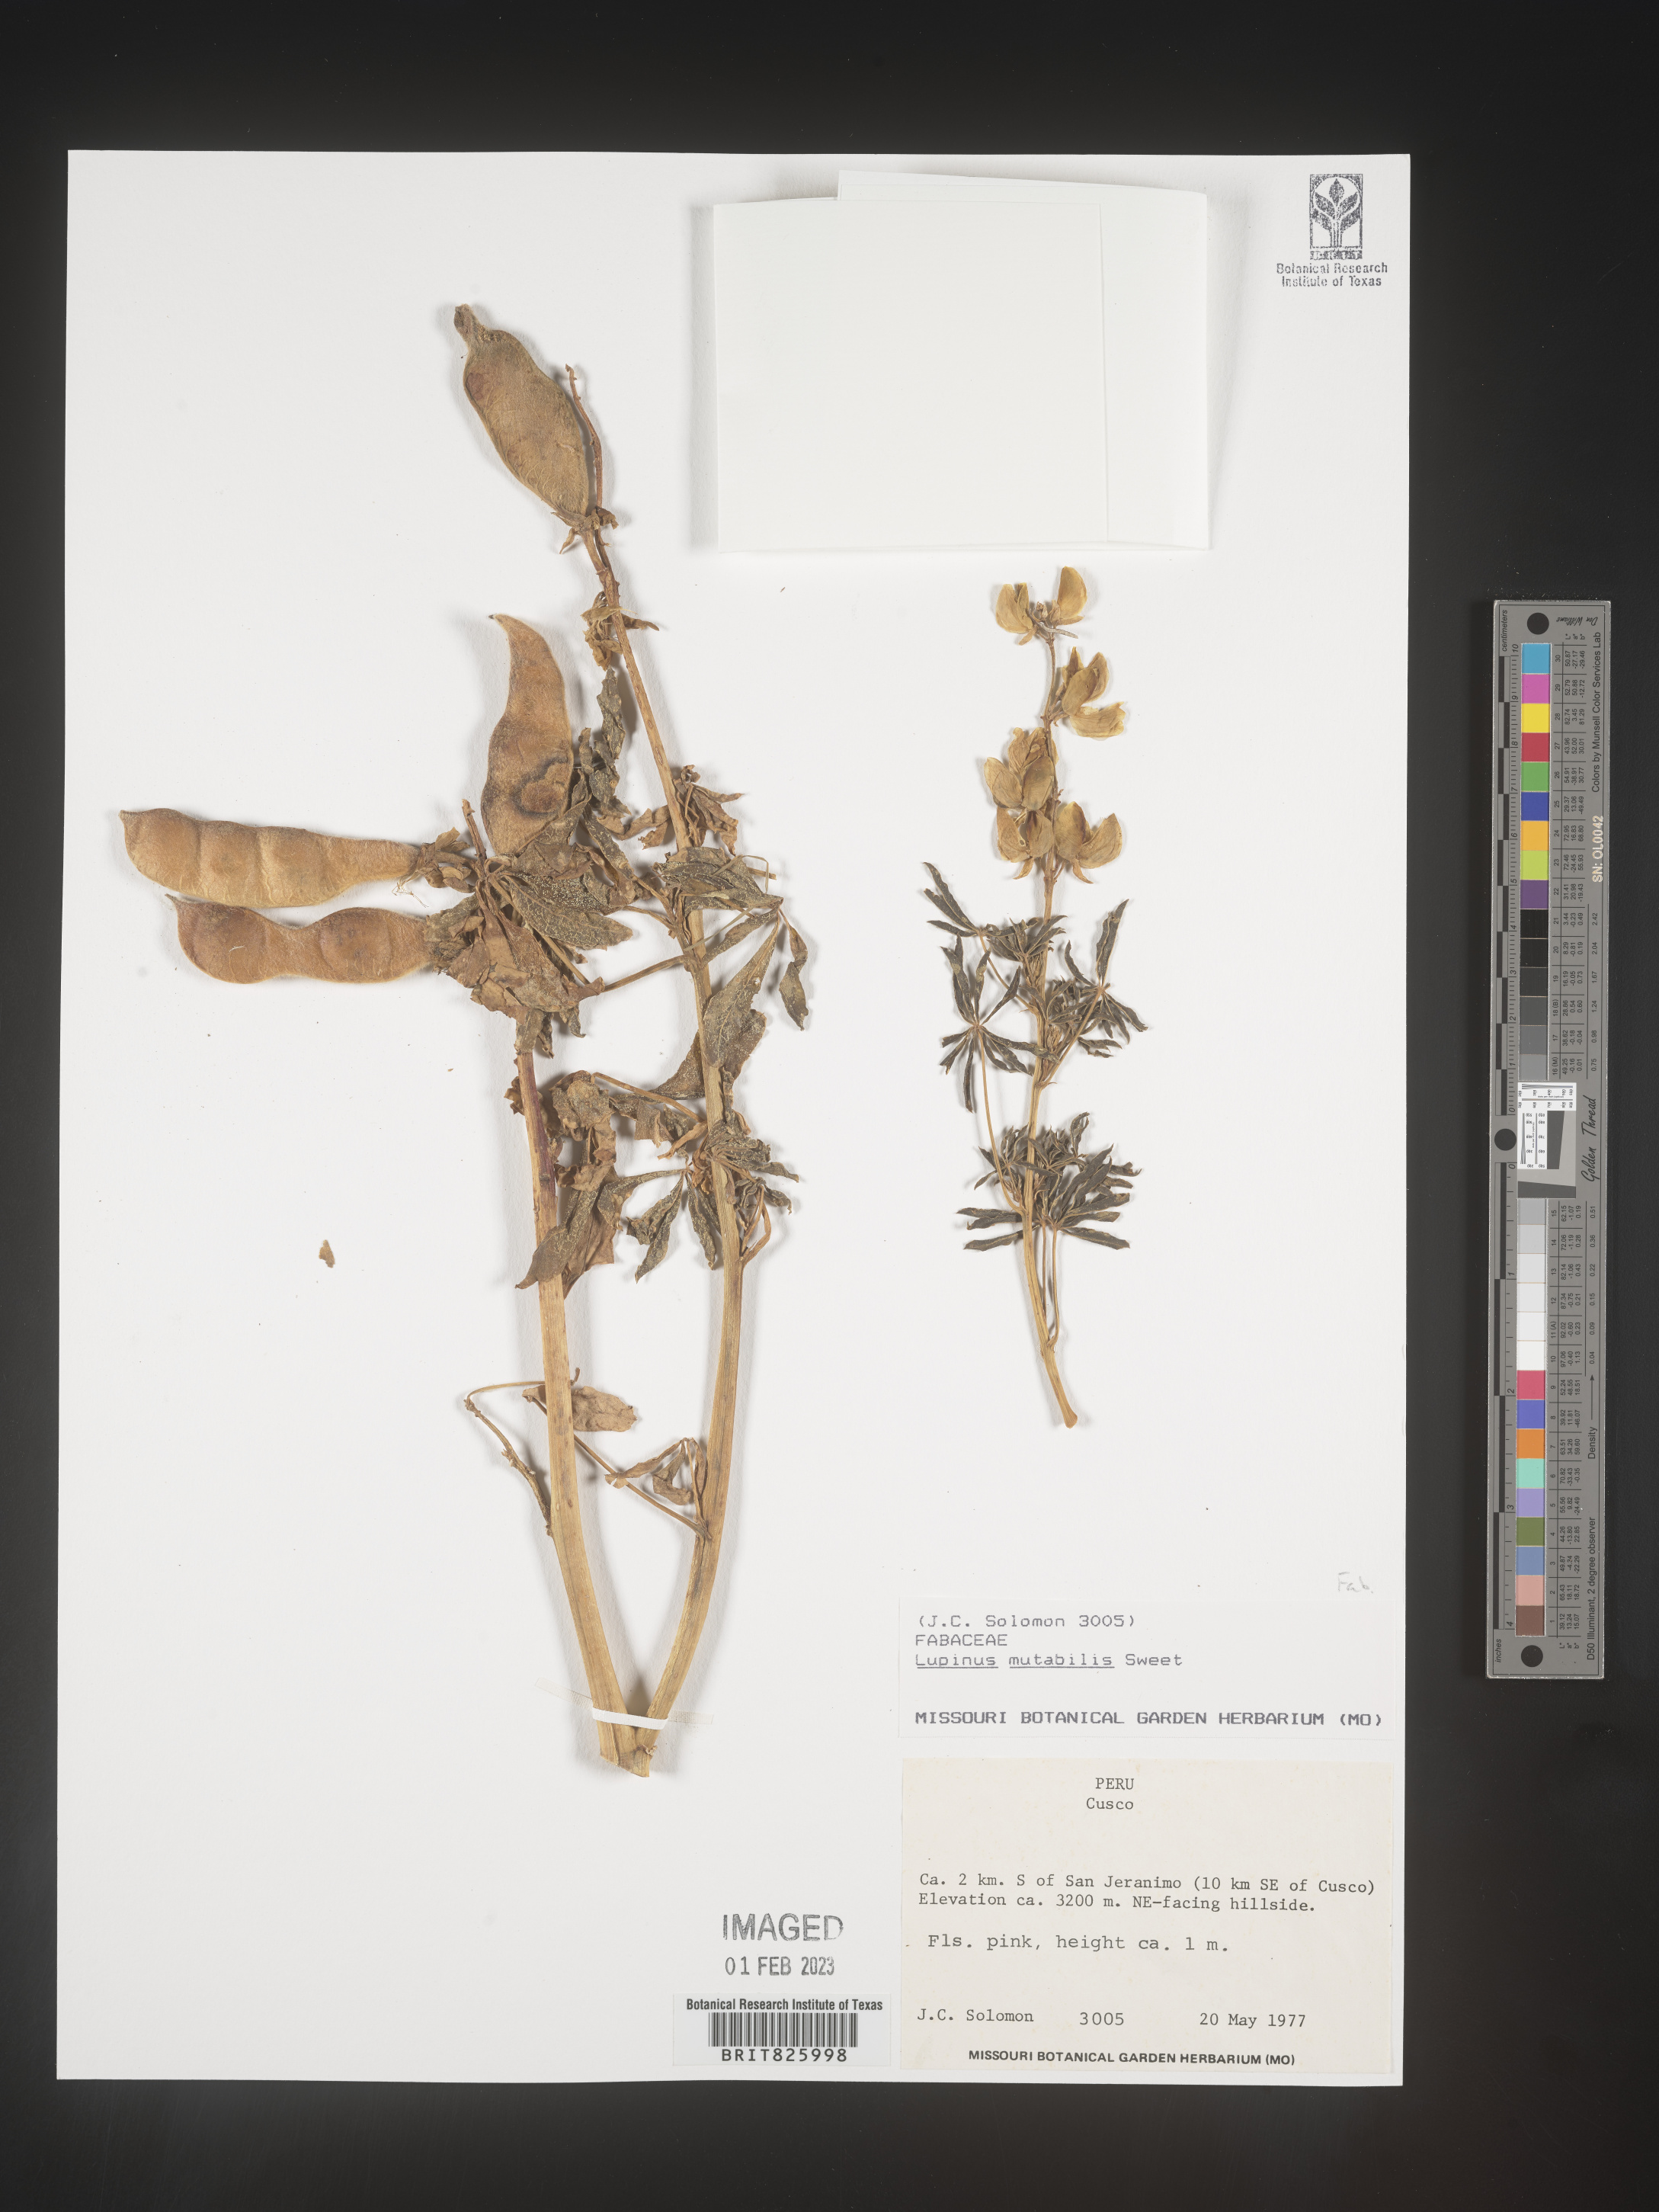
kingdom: Plantae
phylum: Tracheophyta
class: Magnoliopsida
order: Fabales
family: Fabaceae
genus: Lupinus
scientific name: Lupinus
